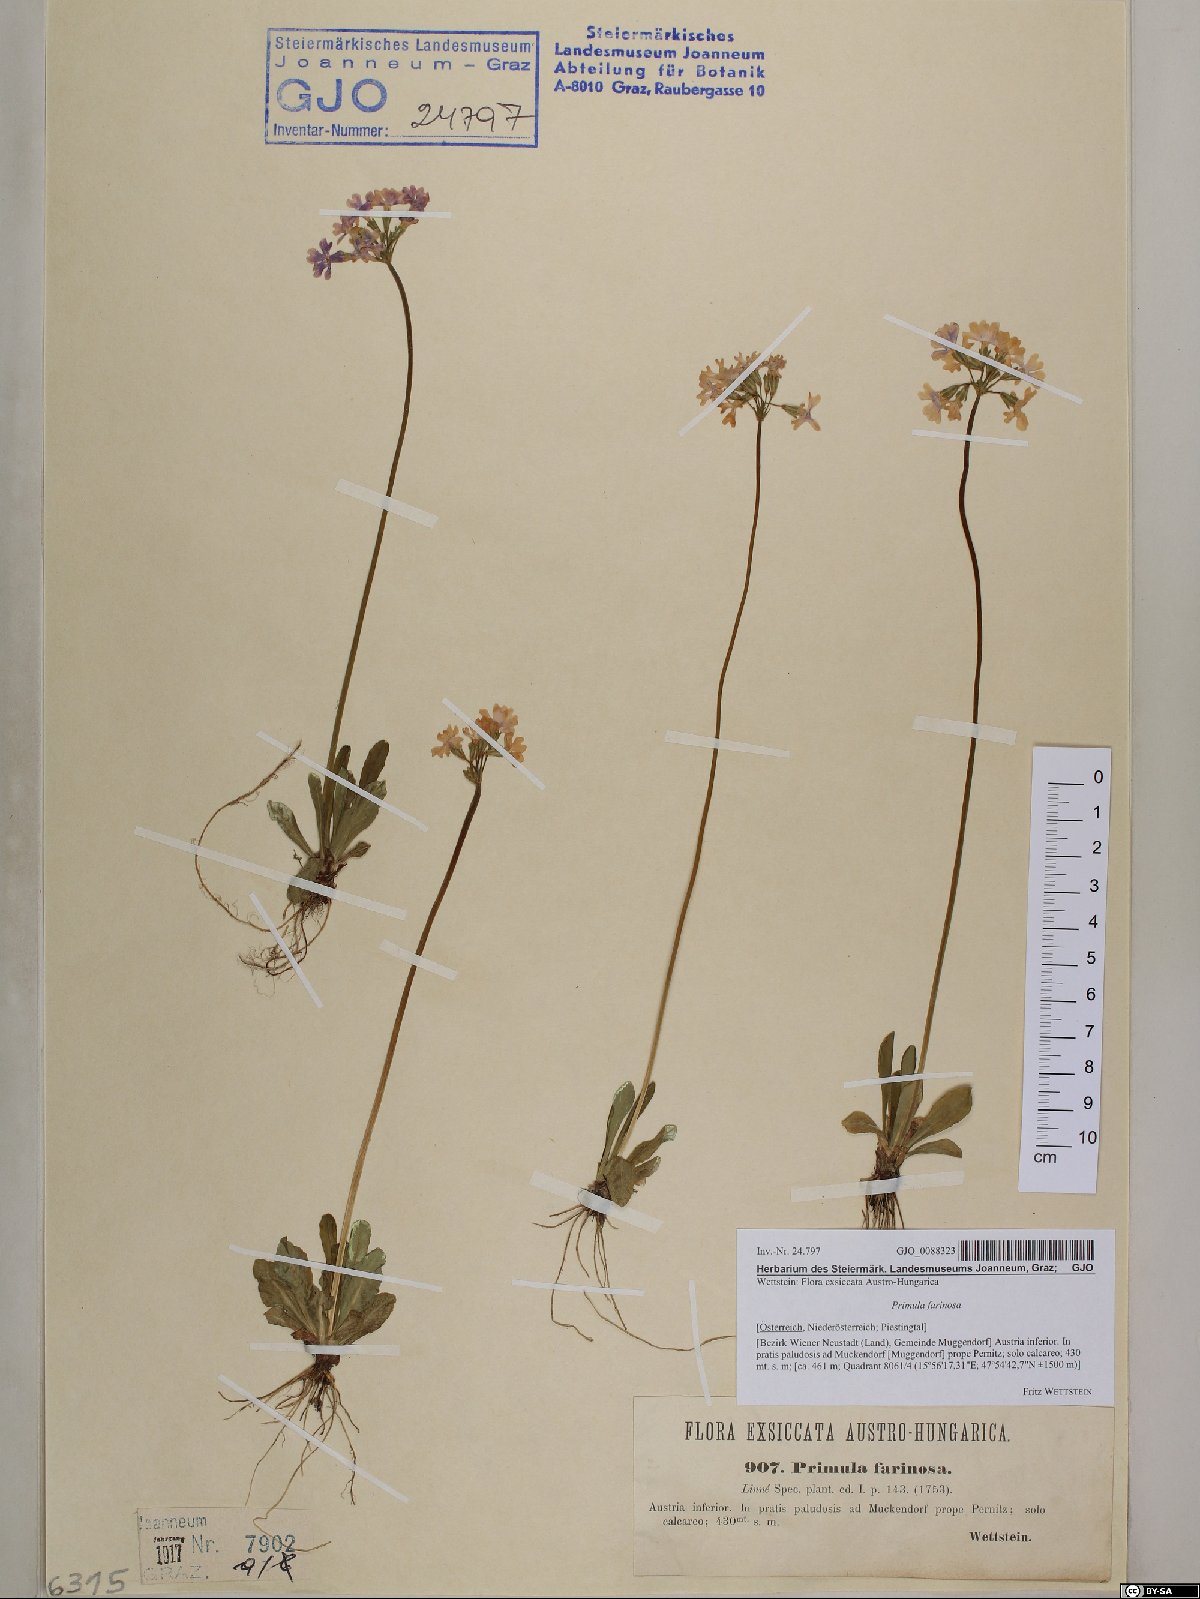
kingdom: Plantae
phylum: Tracheophyta
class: Magnoliopsida
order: Ericales
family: Primulaceae
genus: Primula
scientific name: Primula farinosa
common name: Bird's-eye primrose
